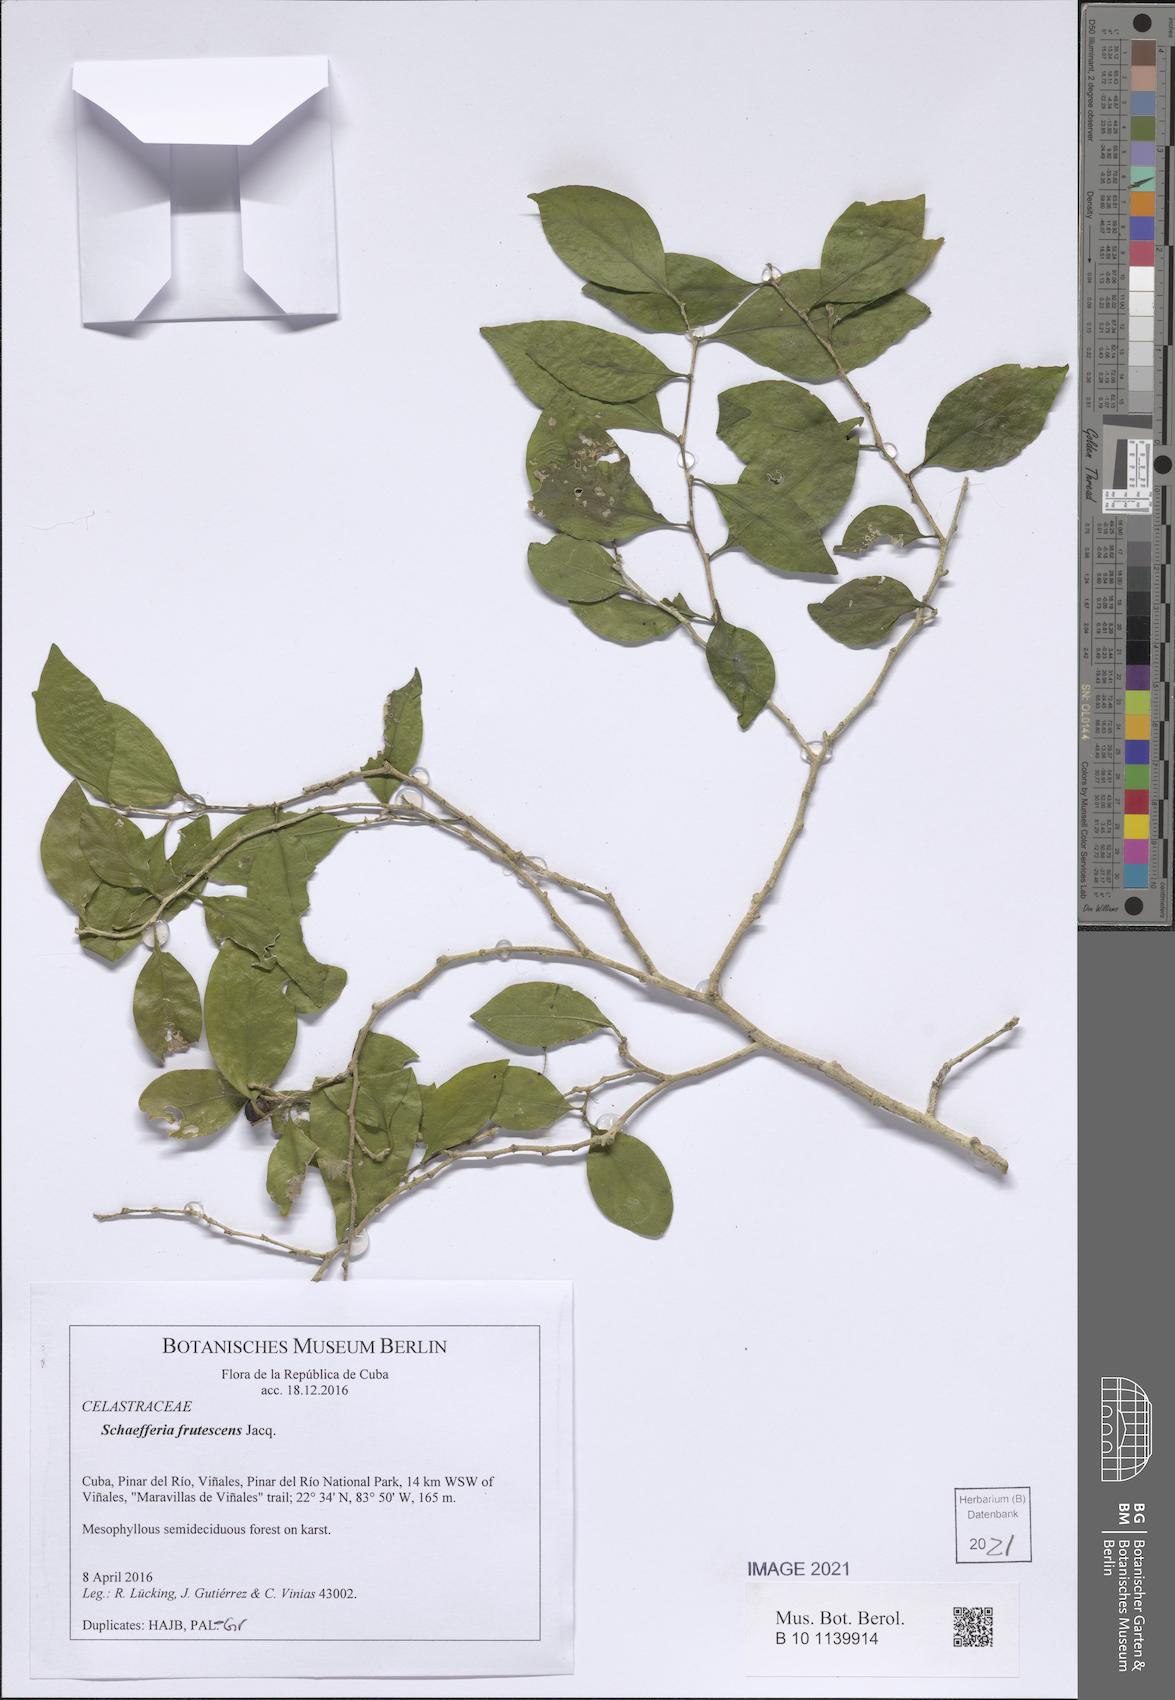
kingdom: Plantae
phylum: Tracheophyta
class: Magnoliopsida
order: Celastrales
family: Celastraceae
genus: Schaefferia
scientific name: Schaefferia frutescens
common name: Boxwood
